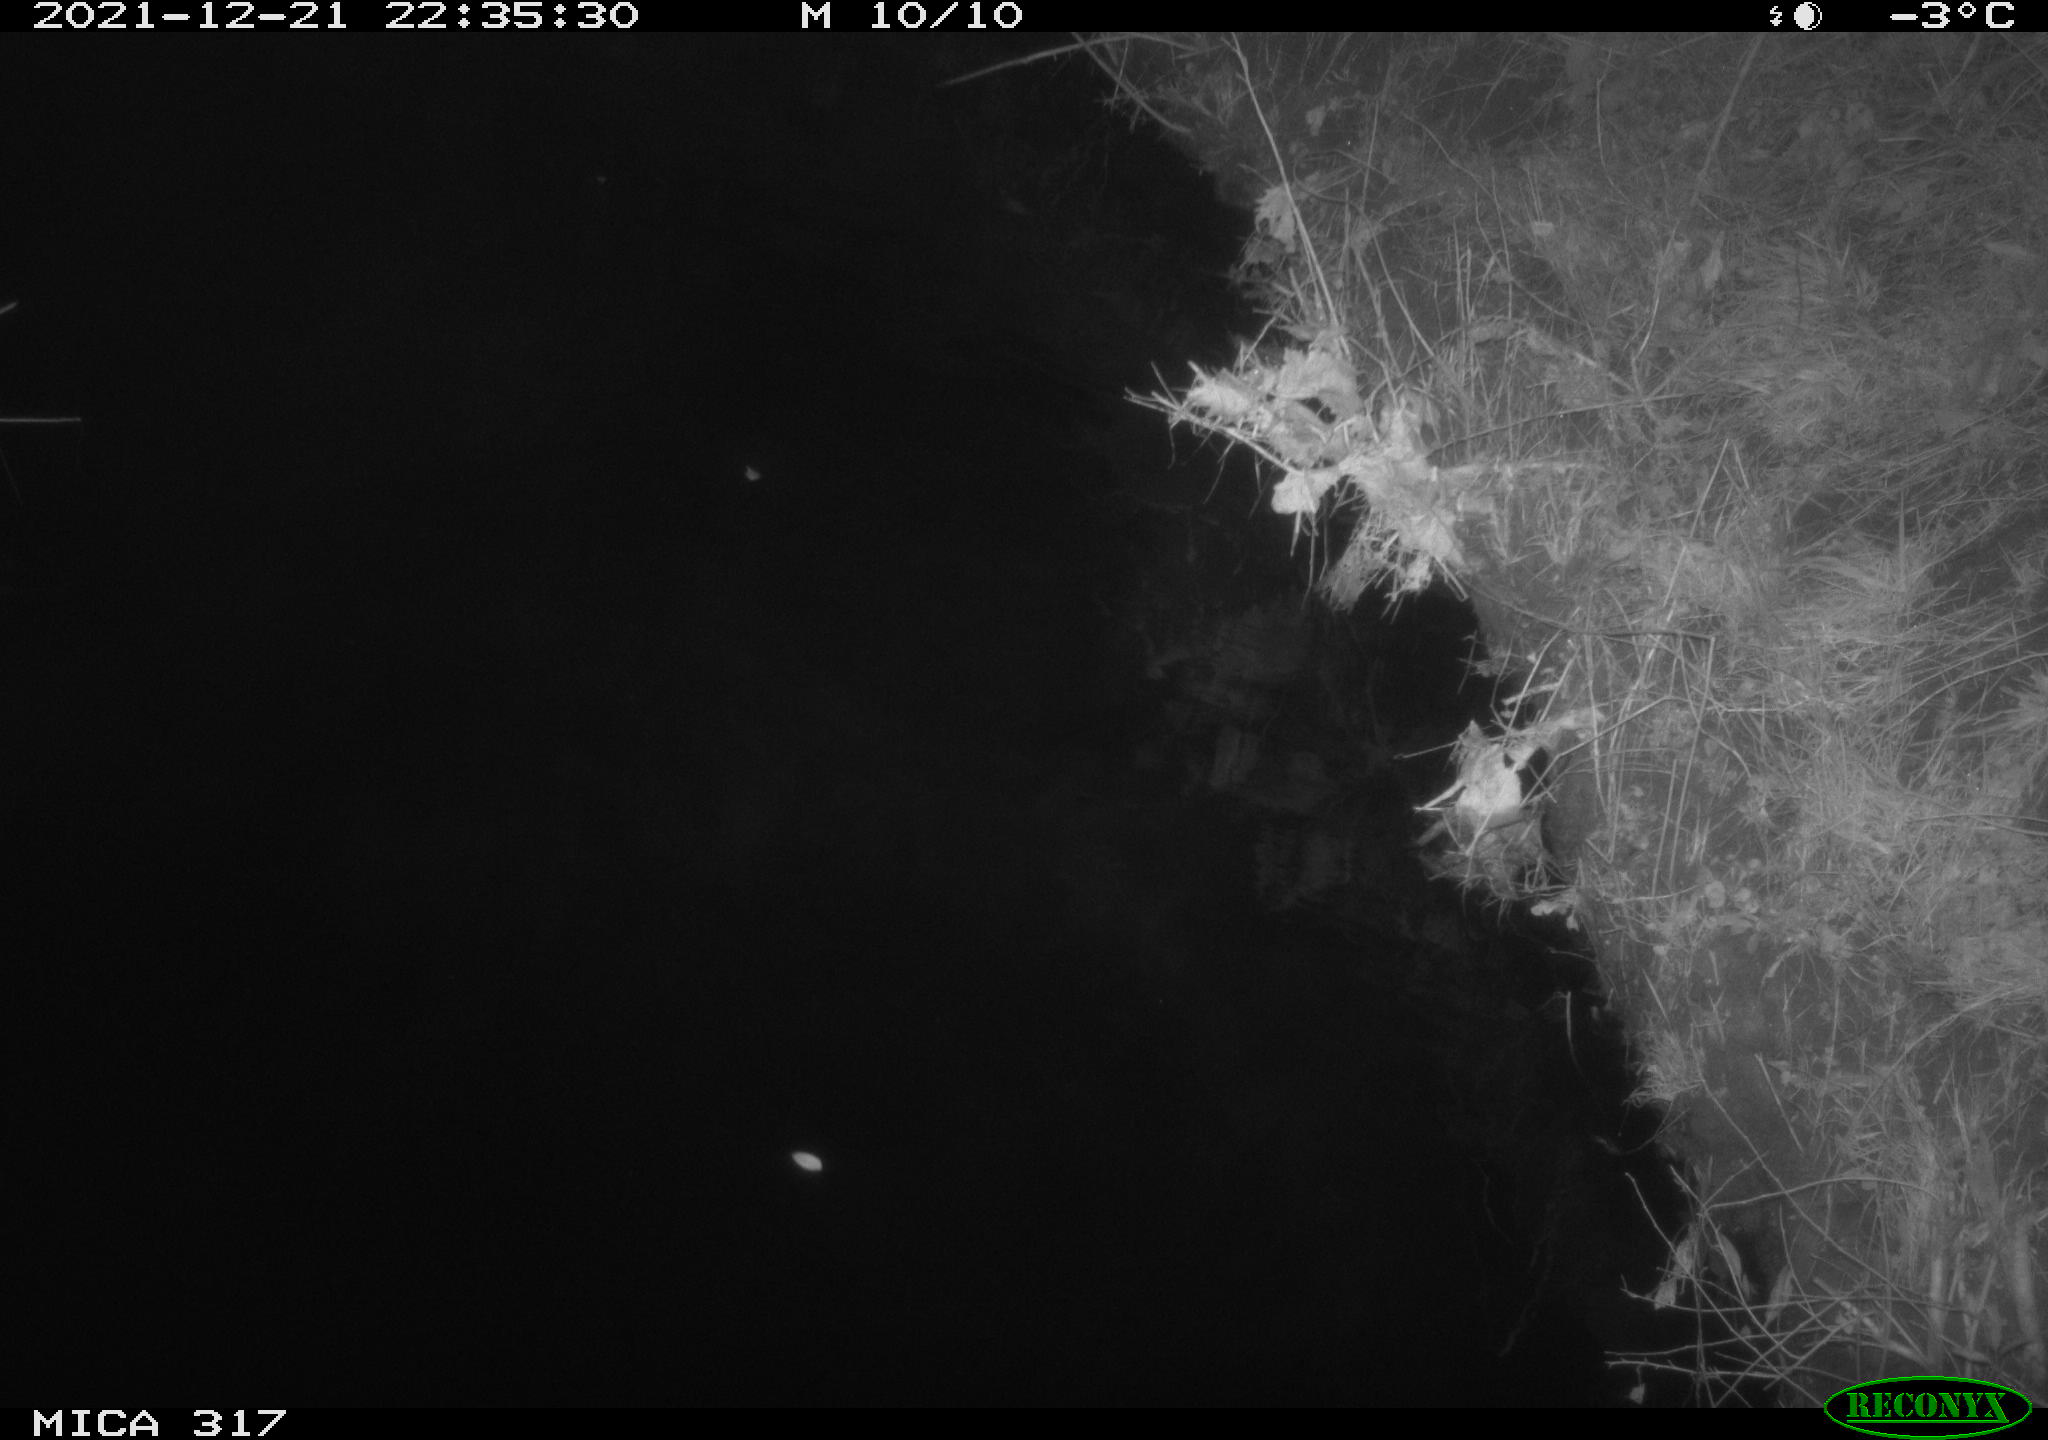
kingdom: Animalia
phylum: Chordata
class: Aves
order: Anseriformes
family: Anatidae
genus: Anas
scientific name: Anas platyrhynchos
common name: Mallard
